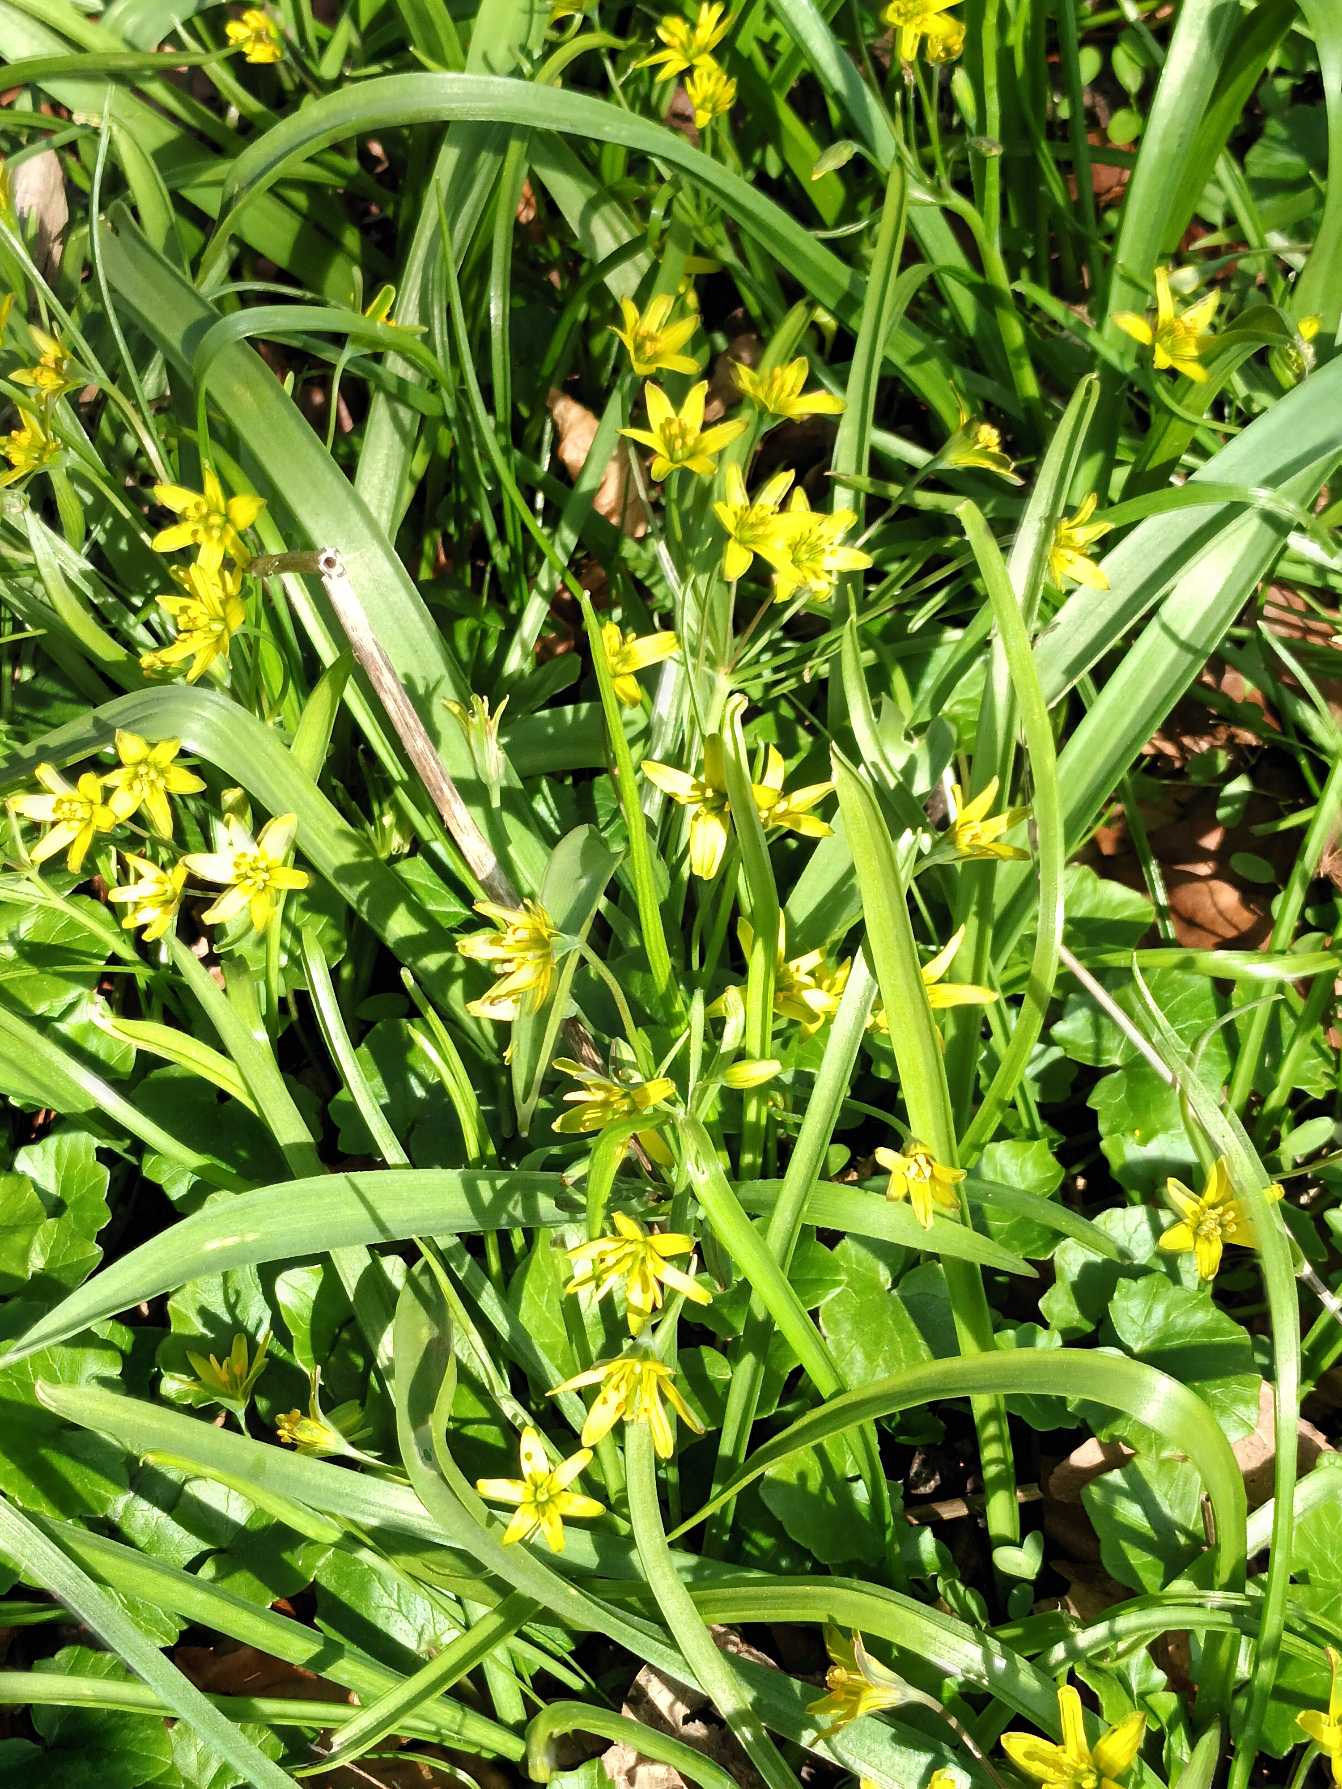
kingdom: Plantae
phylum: Tracheophyta
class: Liliopsida
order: Liliales
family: Liliaceae
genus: Gagea
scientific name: Gagea lutea
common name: Almindelig guldstjerne
